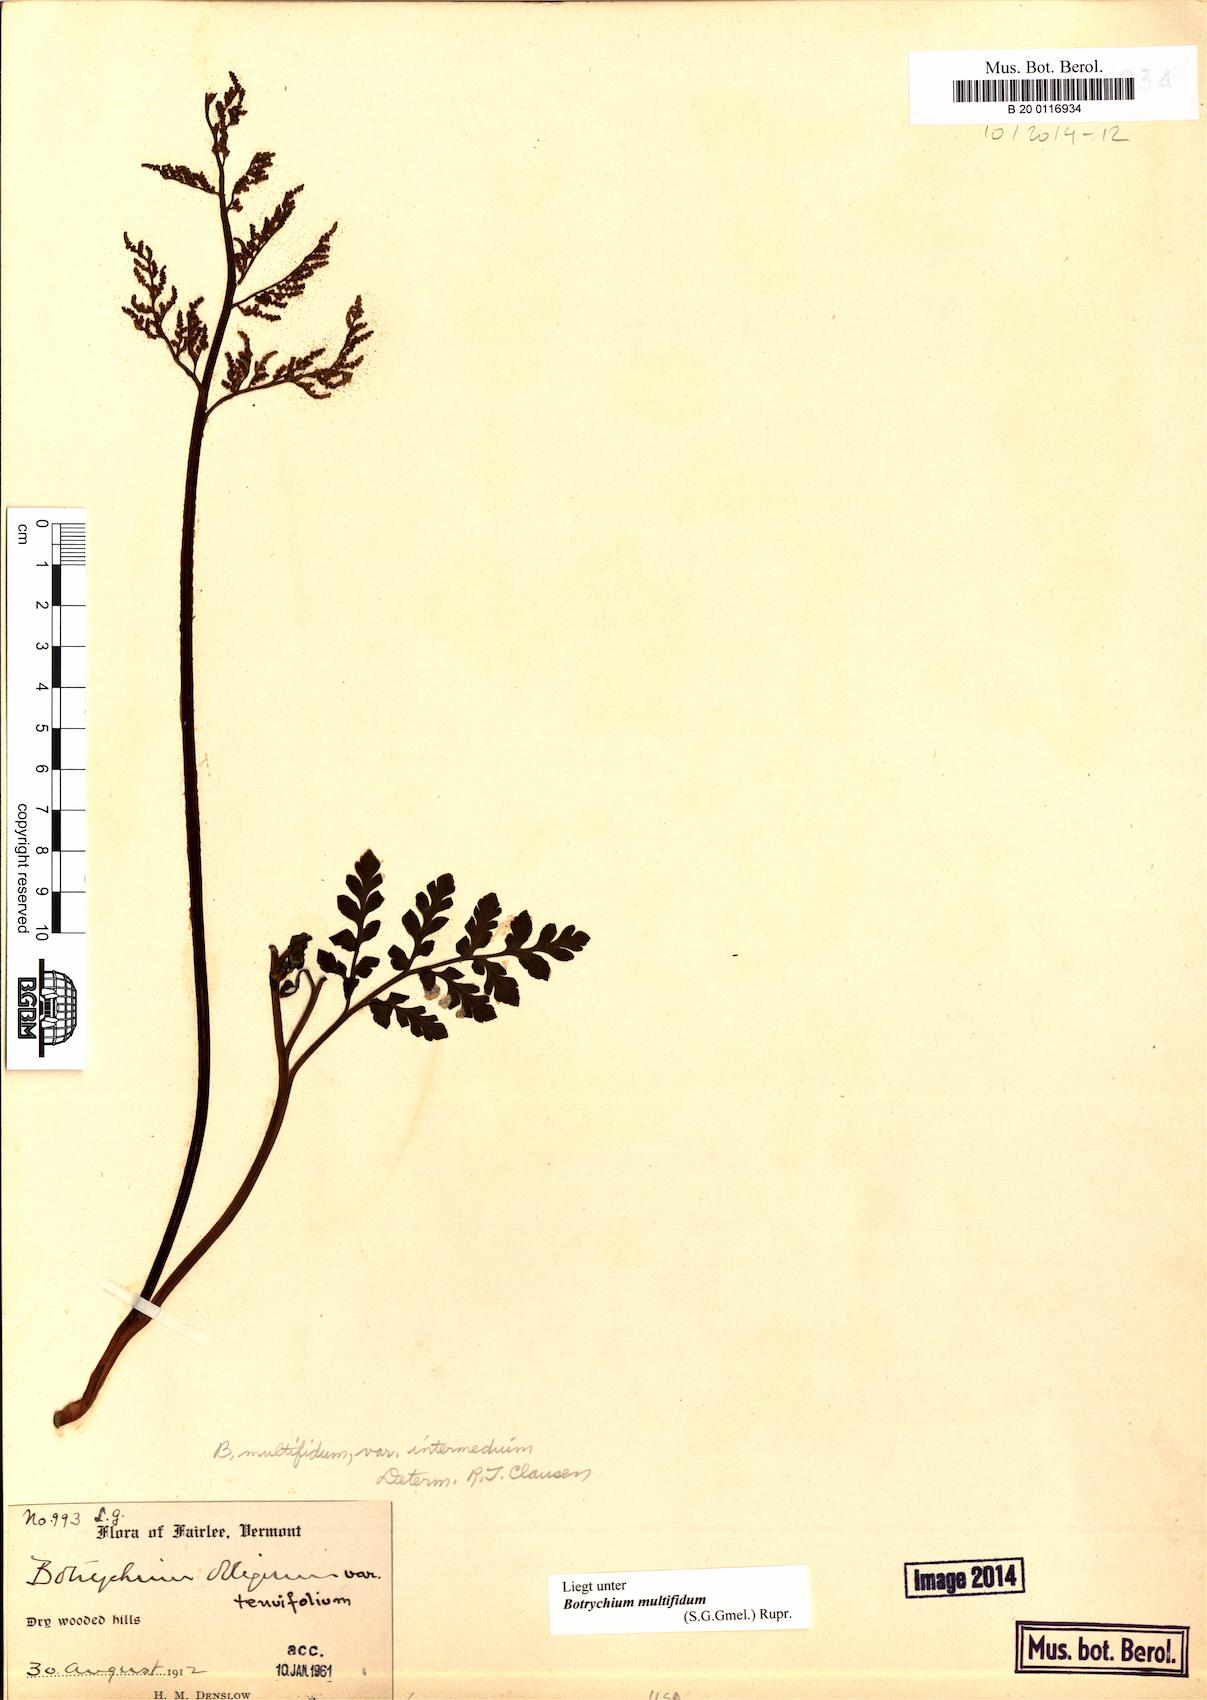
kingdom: Plantae
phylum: Tracheophyta
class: Polypodiopsida
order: Ophioglossales
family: Ophioglossaceae
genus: Sceptridium
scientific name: Sceptridium multifidum
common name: Leathery grape fern
